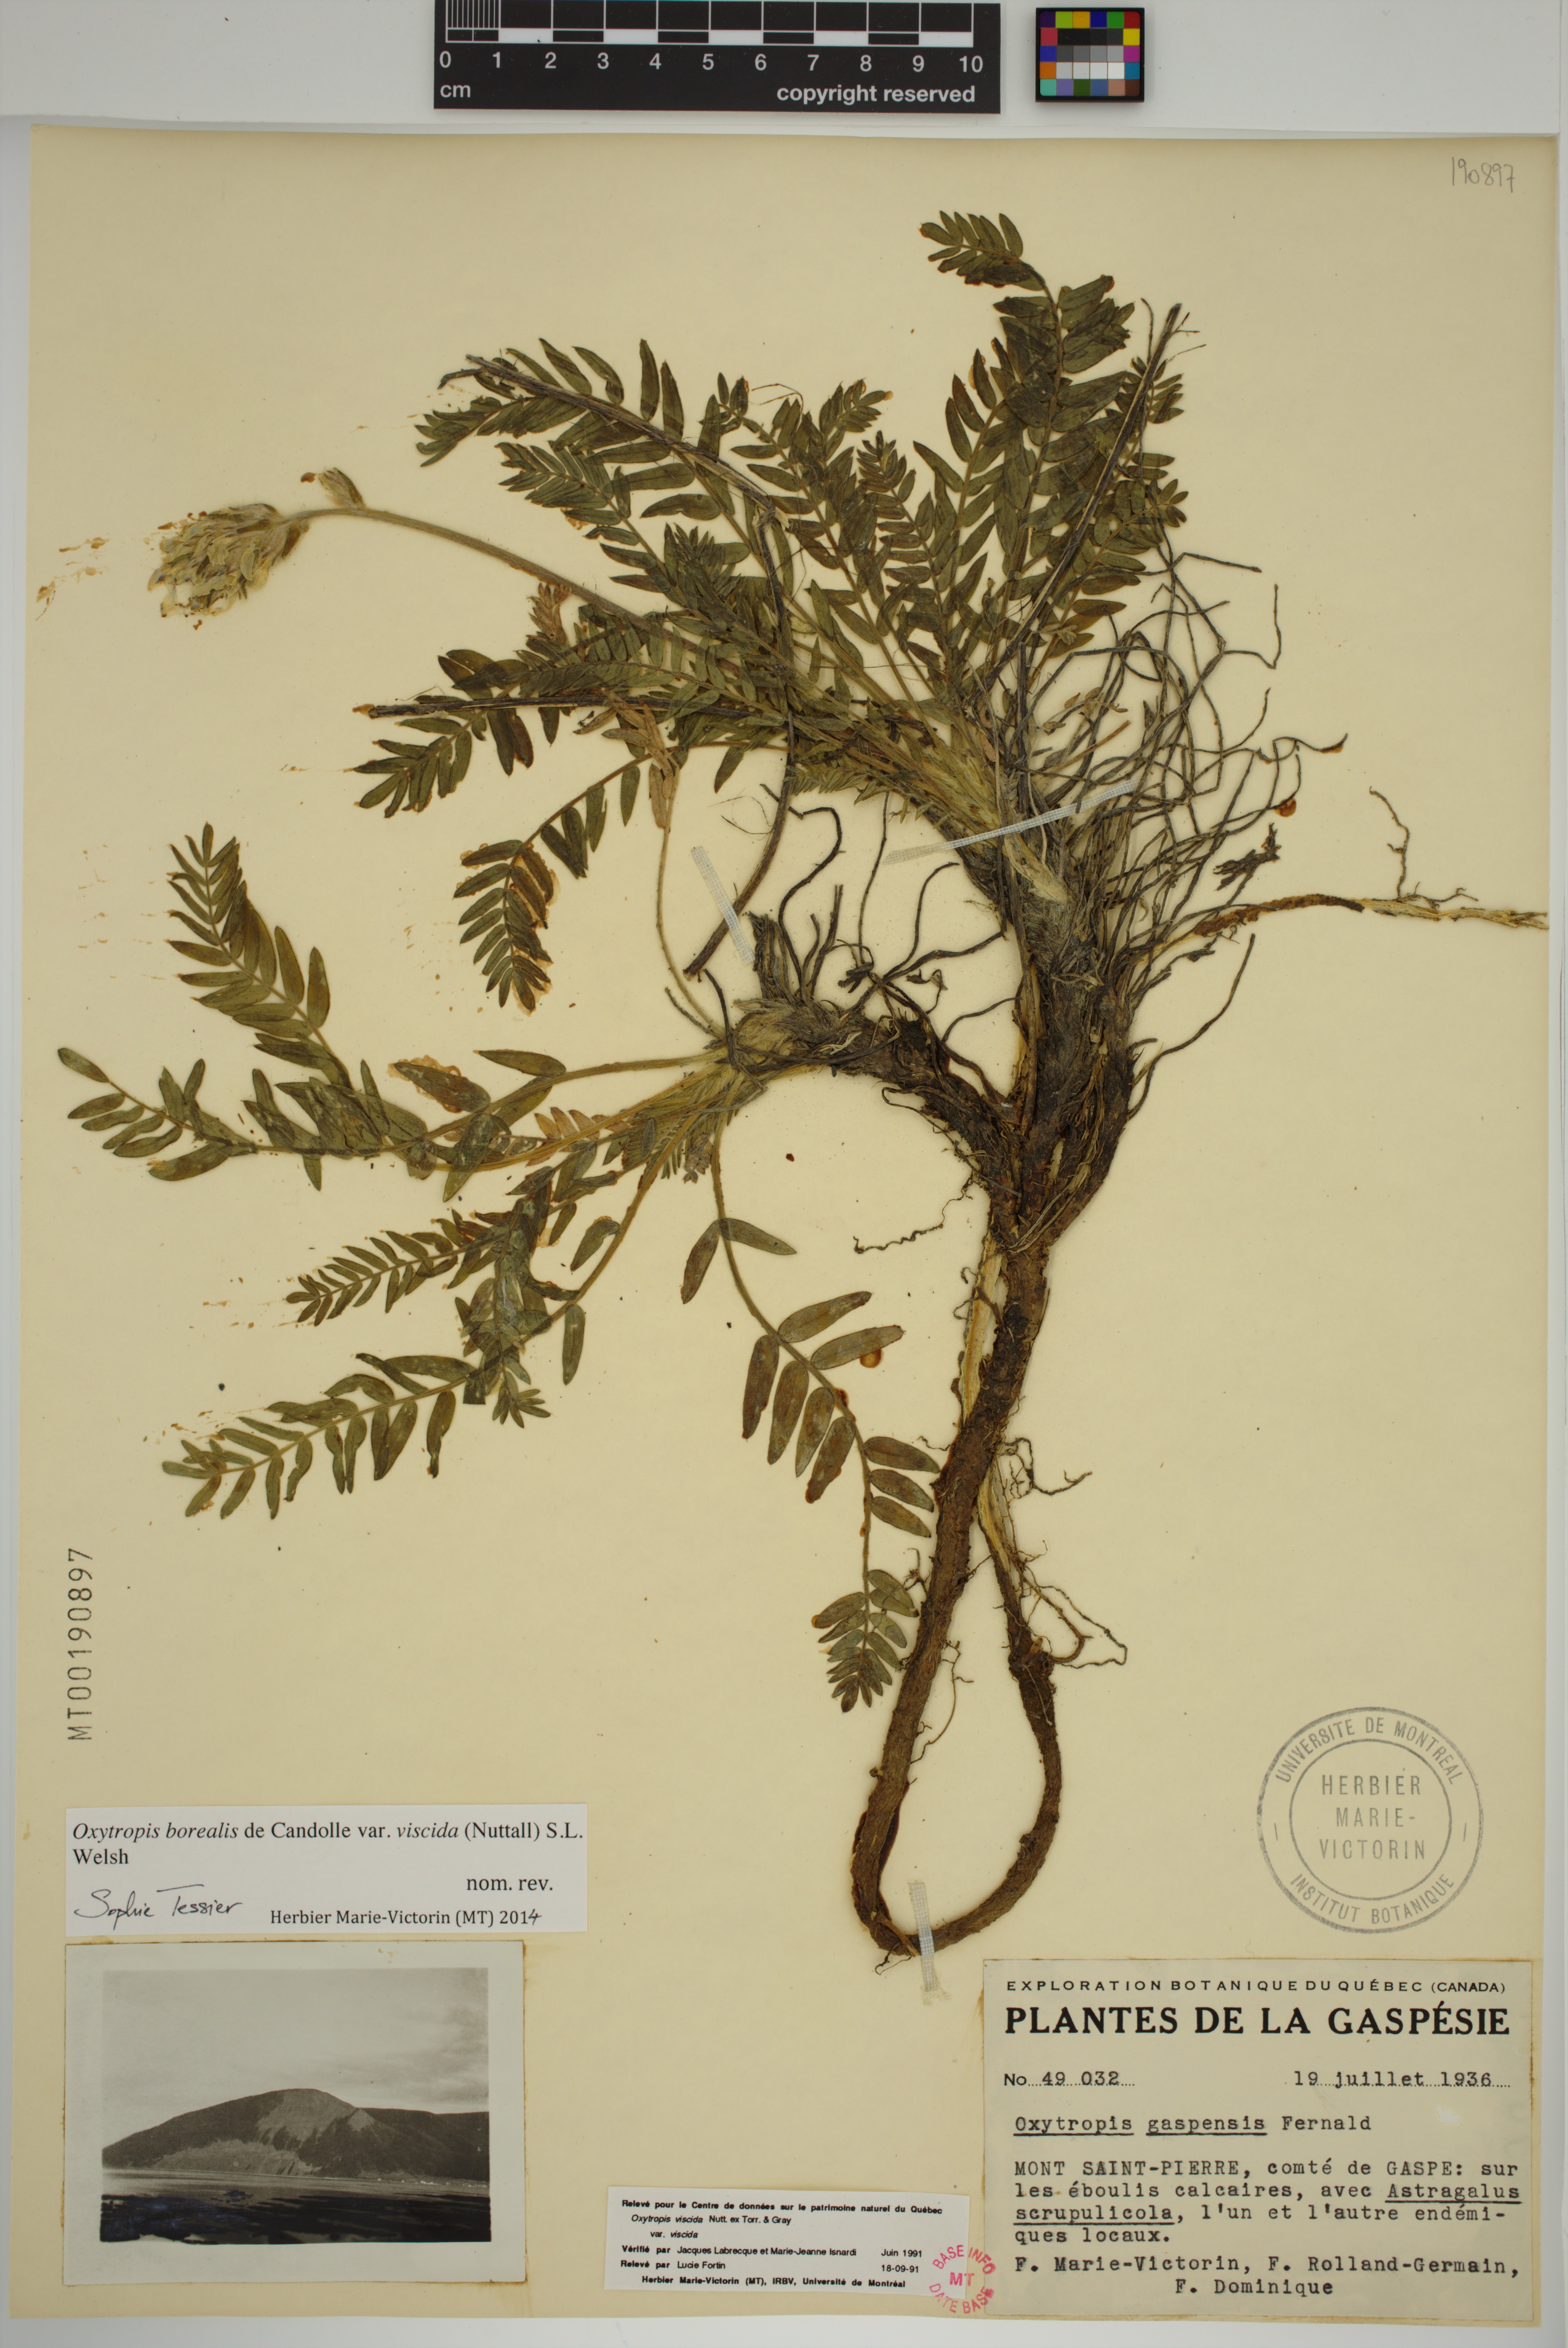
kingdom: Plantae
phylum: Tracheophyta
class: Magnoliopsida
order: Fabales
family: Fabaceae
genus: Oxytropis
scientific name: Oxytropis borealis
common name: Boreal locoweed
